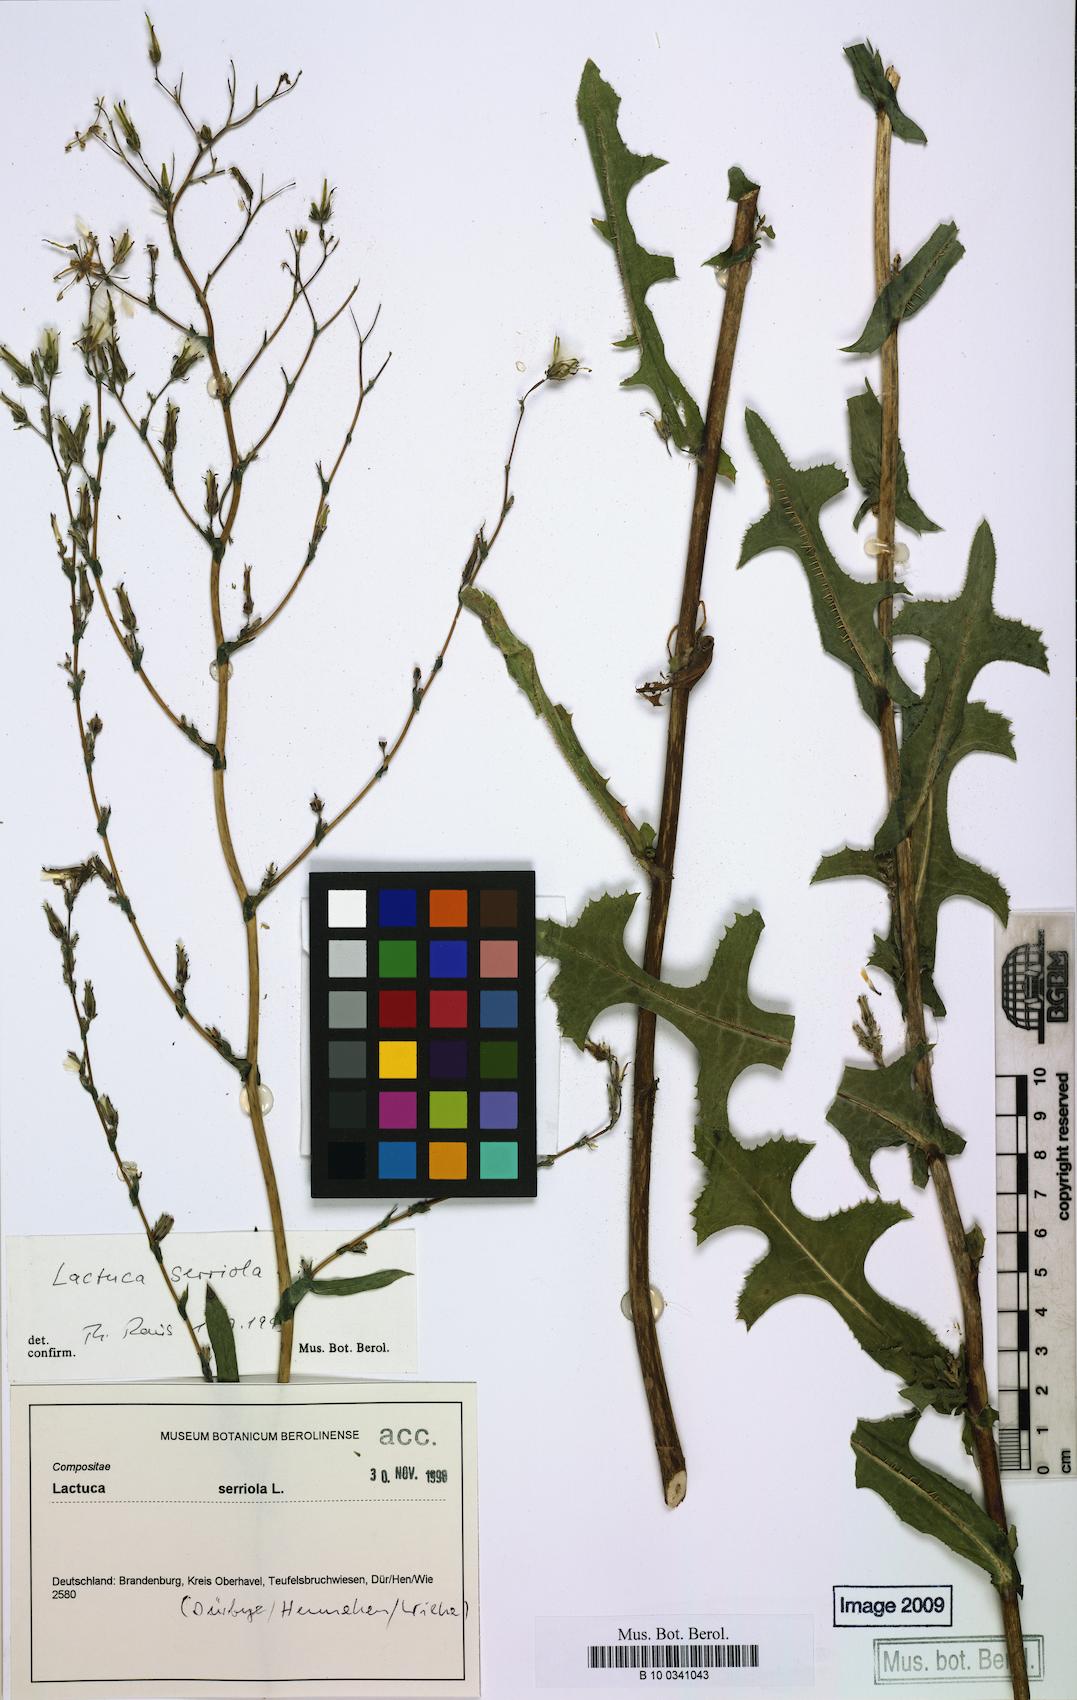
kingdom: Plantae
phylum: Tracheophyta
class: Magnoliopsida
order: Asterales
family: Asteraceae
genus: Lactuca
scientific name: Lactuca serriola
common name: Prickly lettuce
